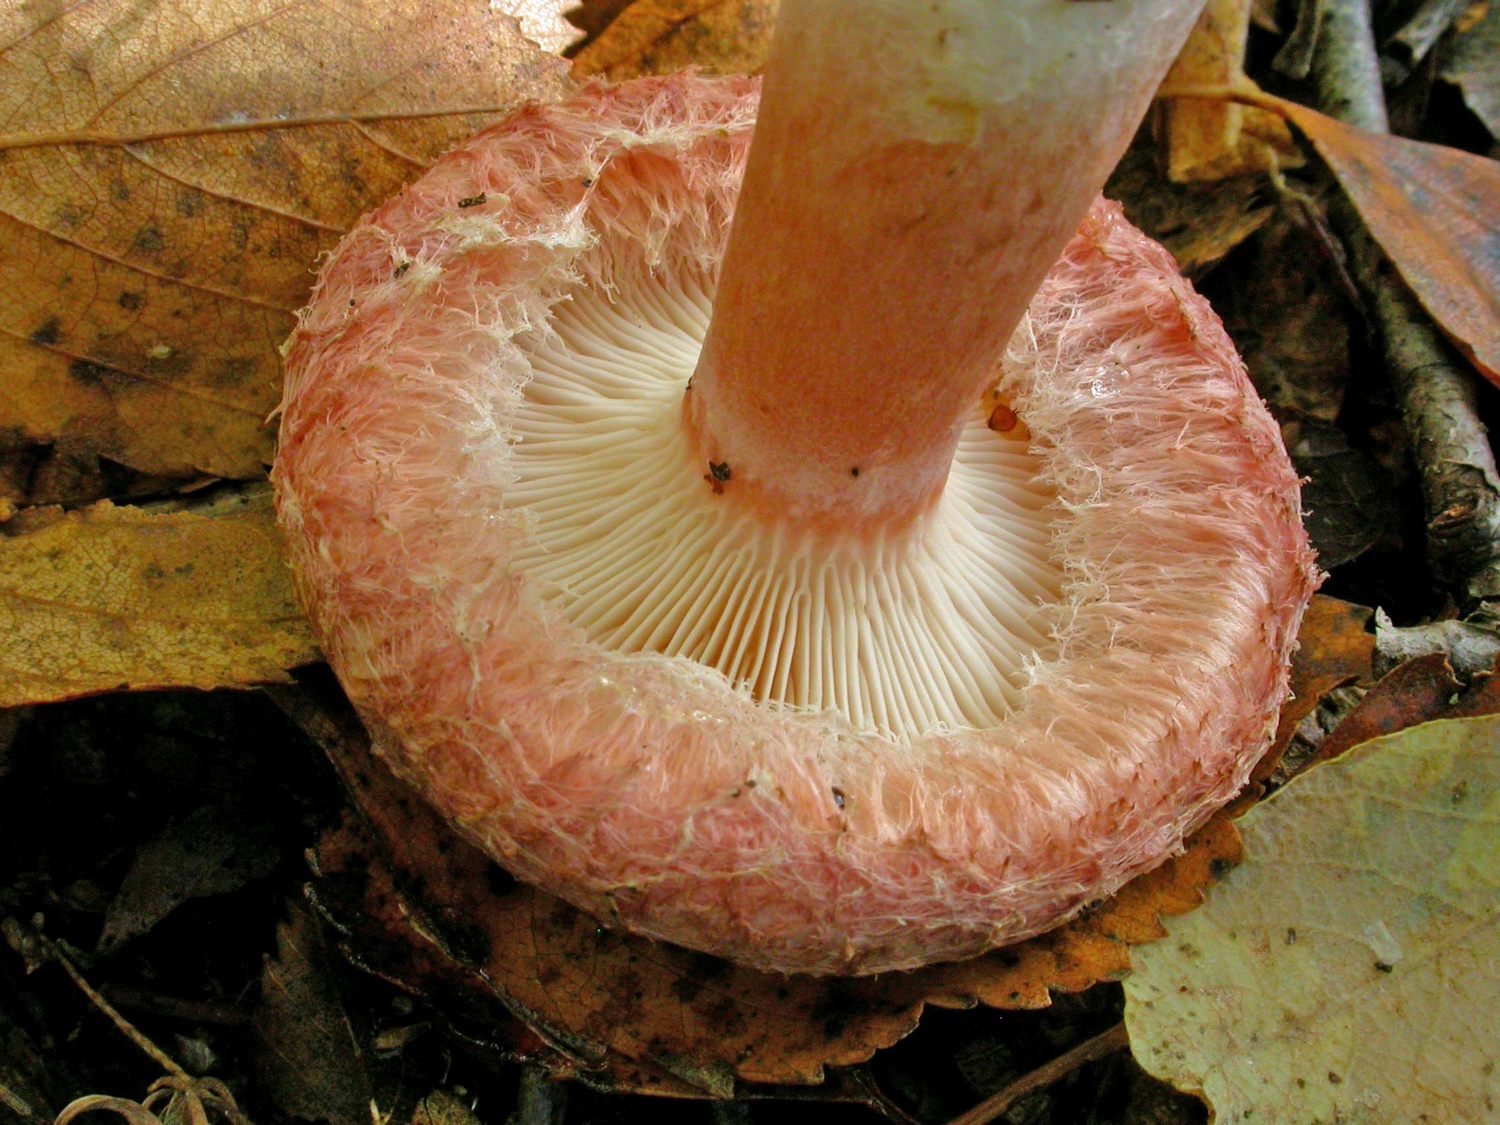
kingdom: Fungi
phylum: Basidiomycota
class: Agaricomycetes
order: Russulales
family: Russulaceae
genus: Lactarius
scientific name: Lactarius torminosus
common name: skægget mælkehat
